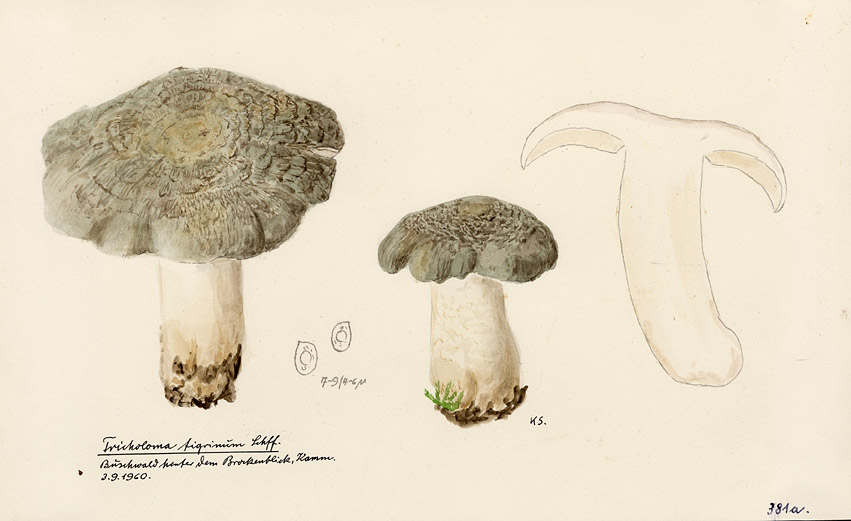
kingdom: Fungi
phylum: Basidiomycota
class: Agaricomycetes
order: Agaricales
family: Tricholomataceae
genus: Tricholoma
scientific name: Tricholoma pardalotum
